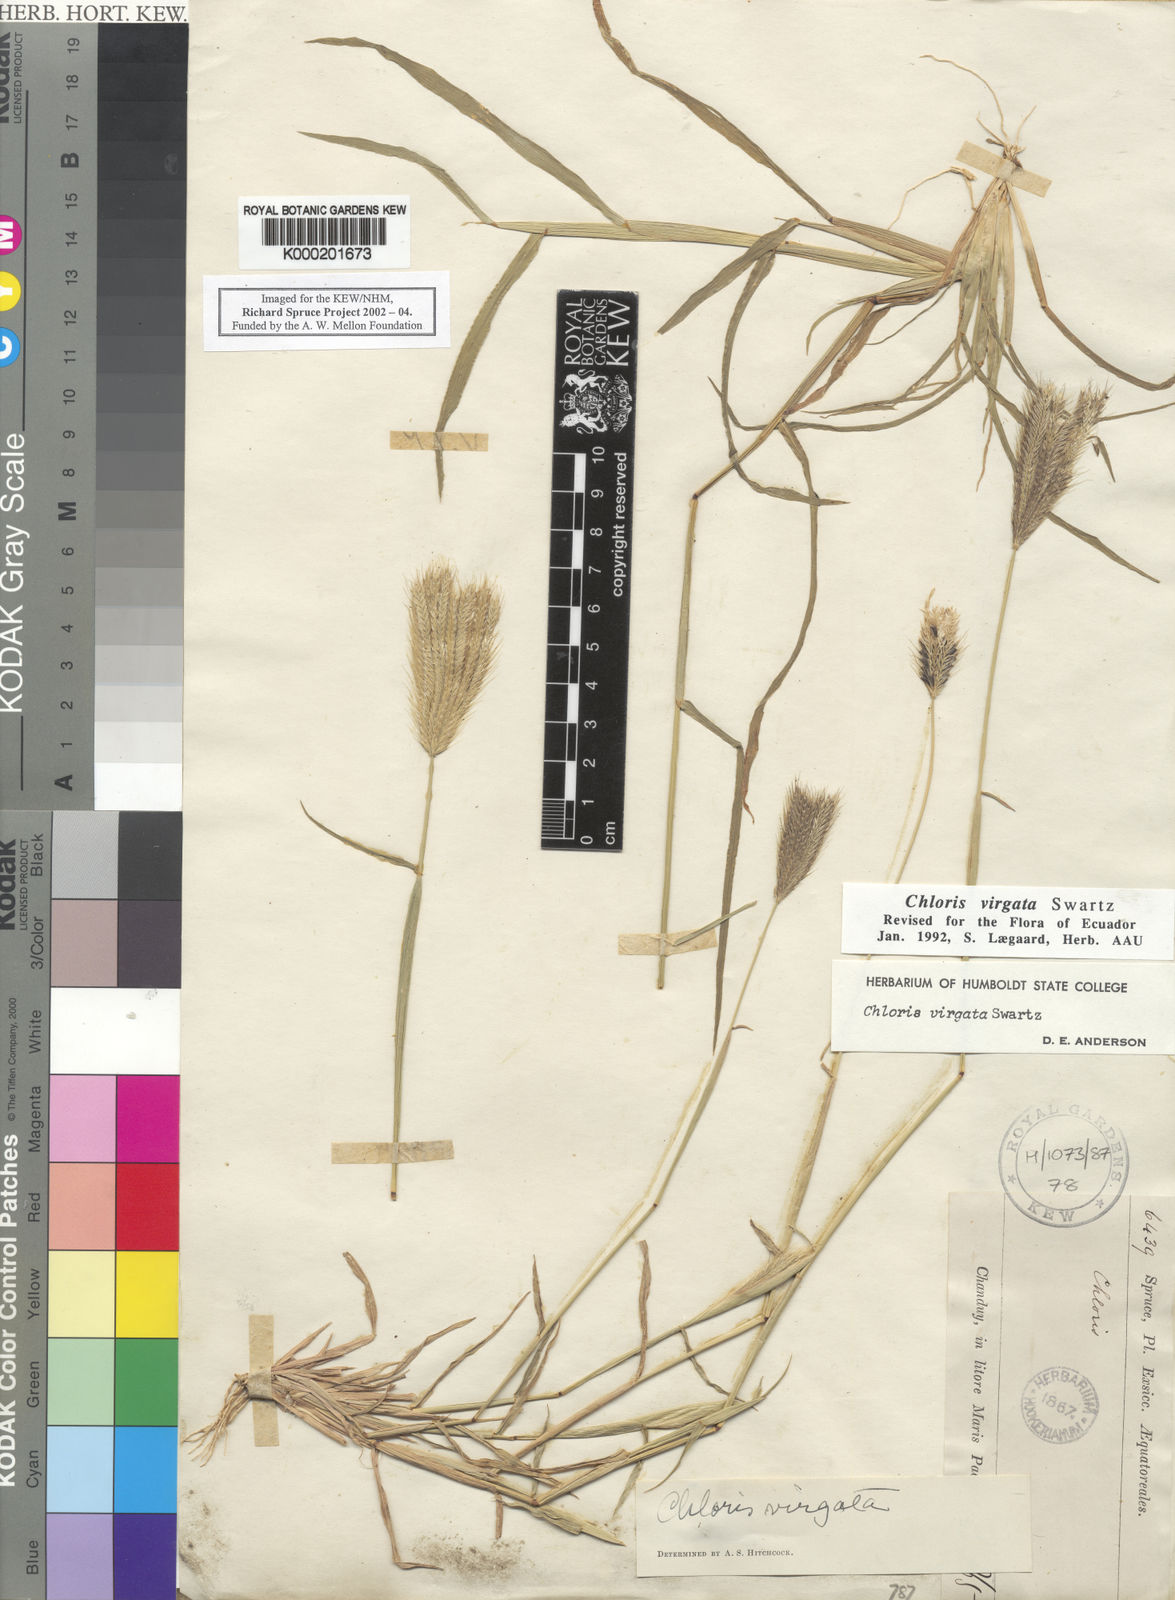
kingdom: Plantae
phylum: Tracheophyta
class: Liliopsida
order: Poales
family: Poaceae
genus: Chloris
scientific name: Chloris virgata
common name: Feathery rhodes-grass
